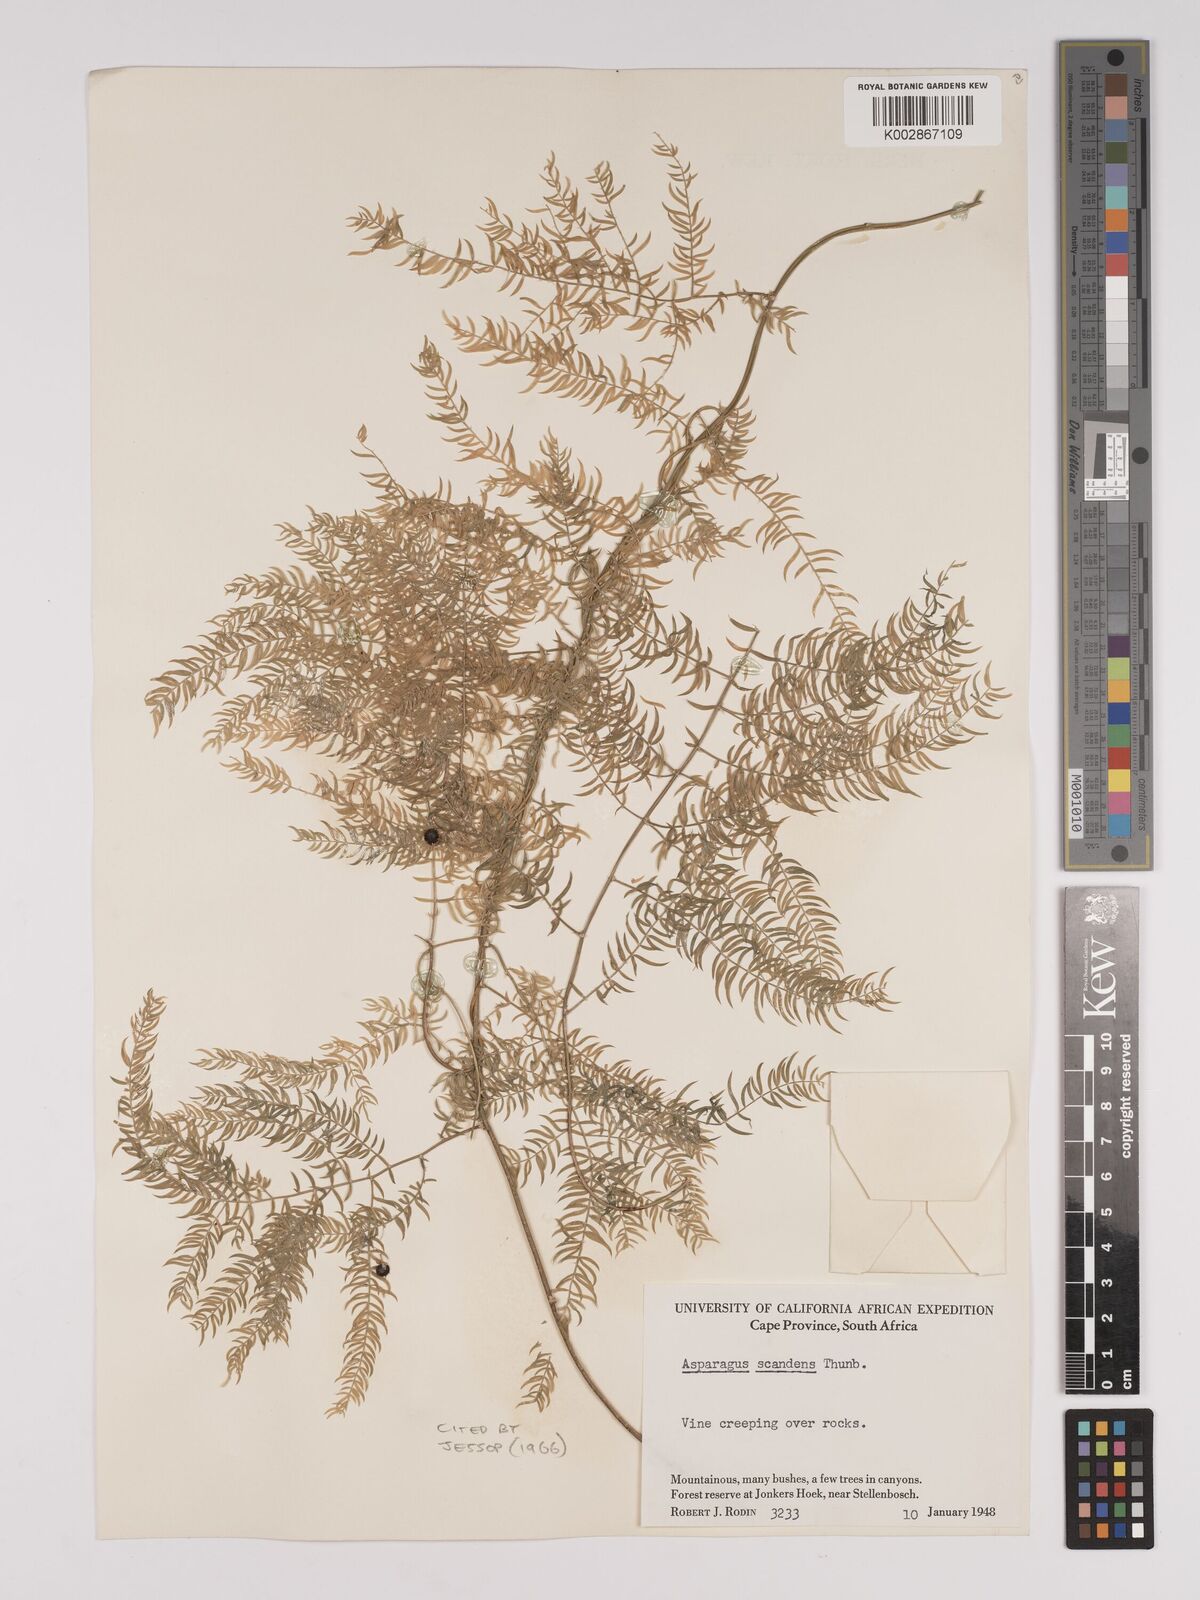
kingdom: Plantae
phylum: Tracheophyta
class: Liliopsida
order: Asparagales
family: Asparagaceae
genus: Asparagus
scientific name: Asparagus scandens
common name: Asparagus-fern
